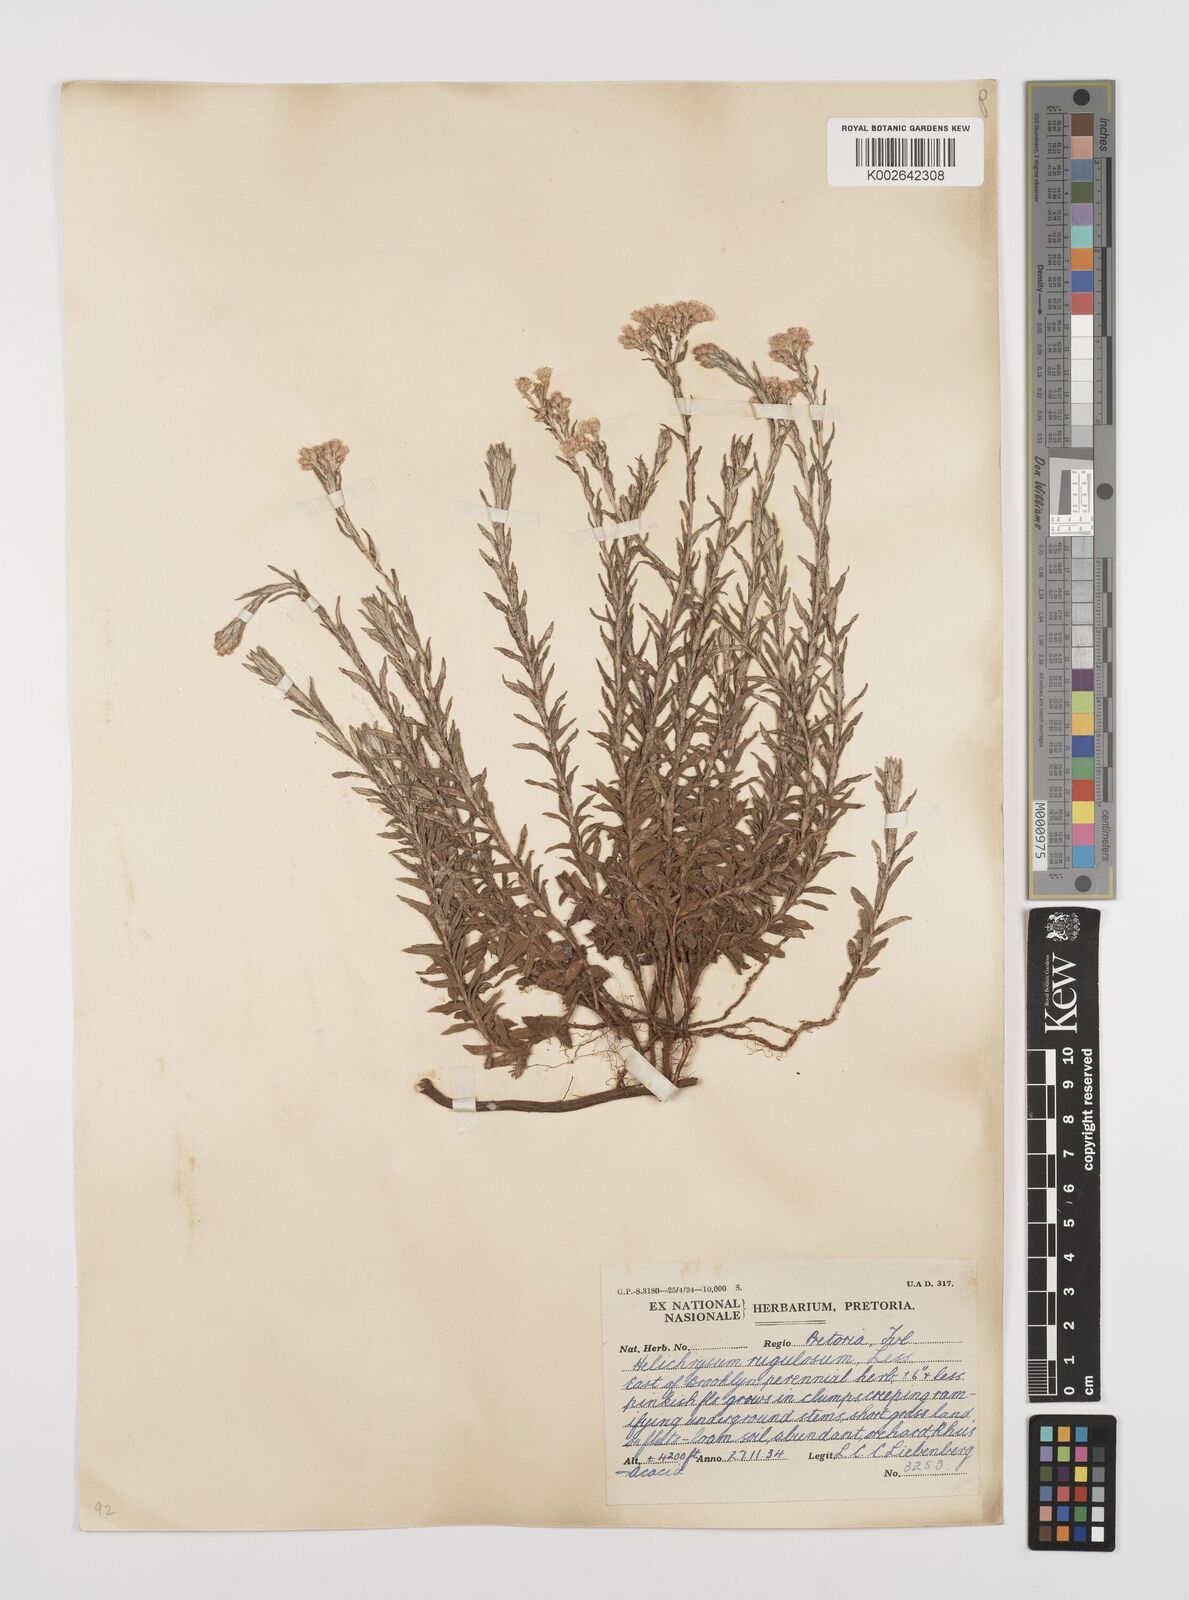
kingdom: Plantae
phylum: Tracheophyta
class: Magnoliopsida
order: Asterales
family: Asteraceae
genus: Helichrysum
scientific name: Helichrysum rugulosum
